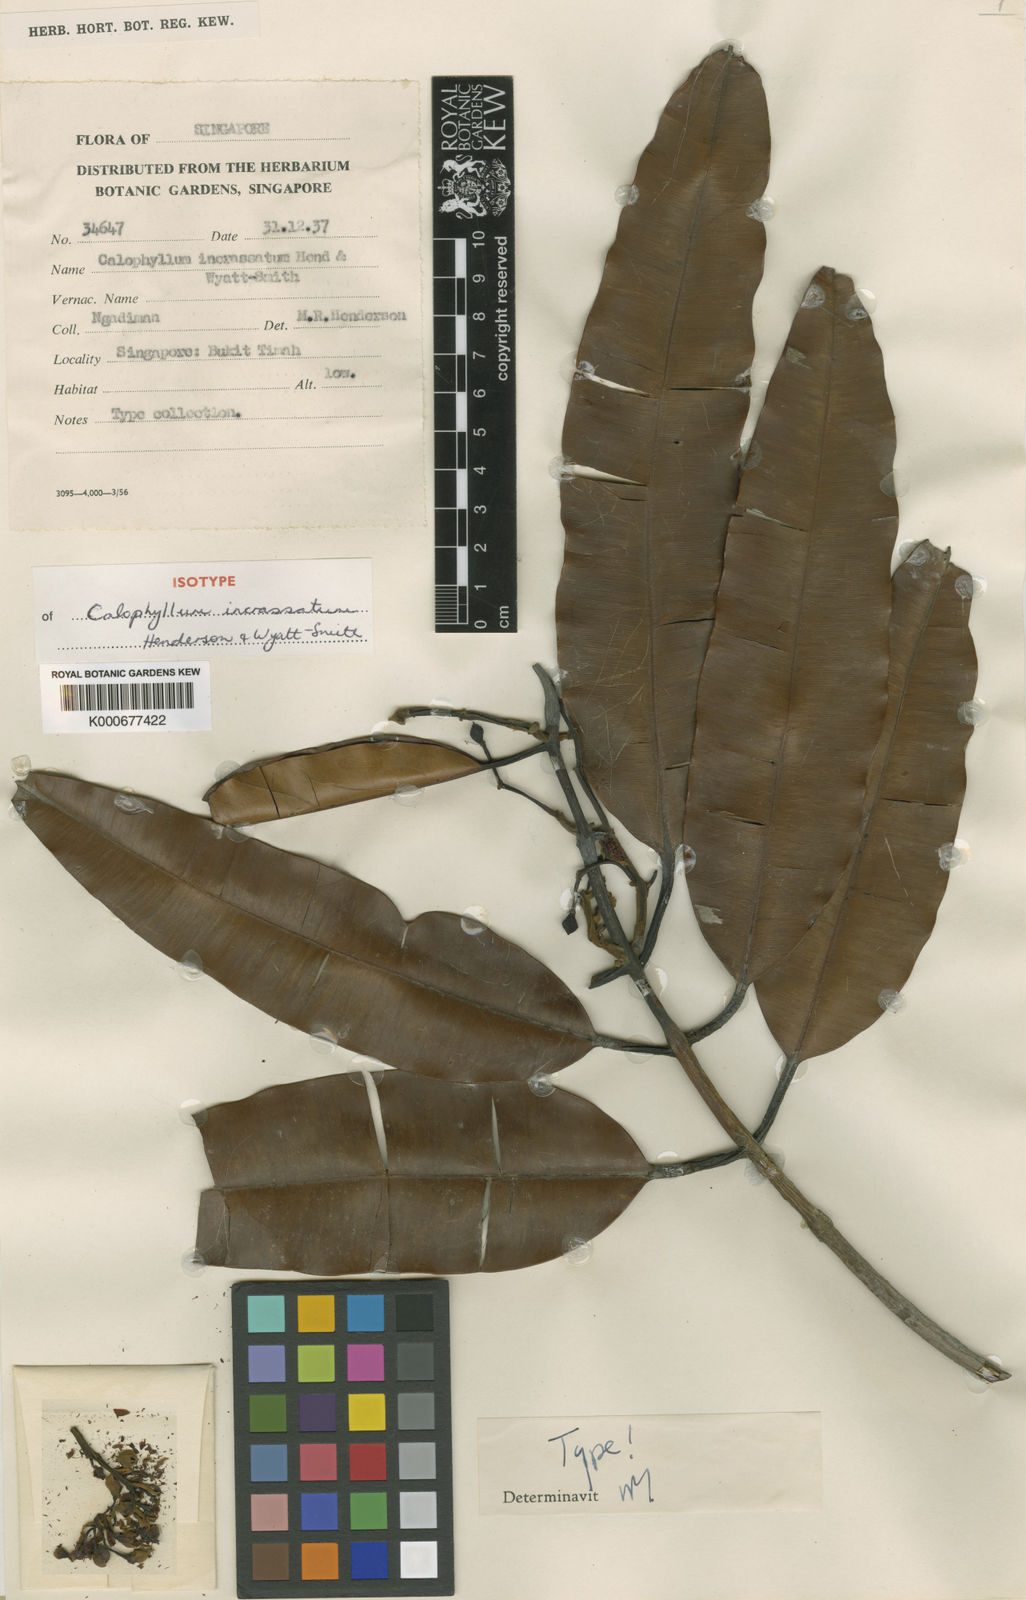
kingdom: Plantae
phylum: Tracheophyta
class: Magnoliopsida
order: Malpighiales
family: Calophyllaceae
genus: Calophyllum
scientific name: Calophyllum wallichiana
